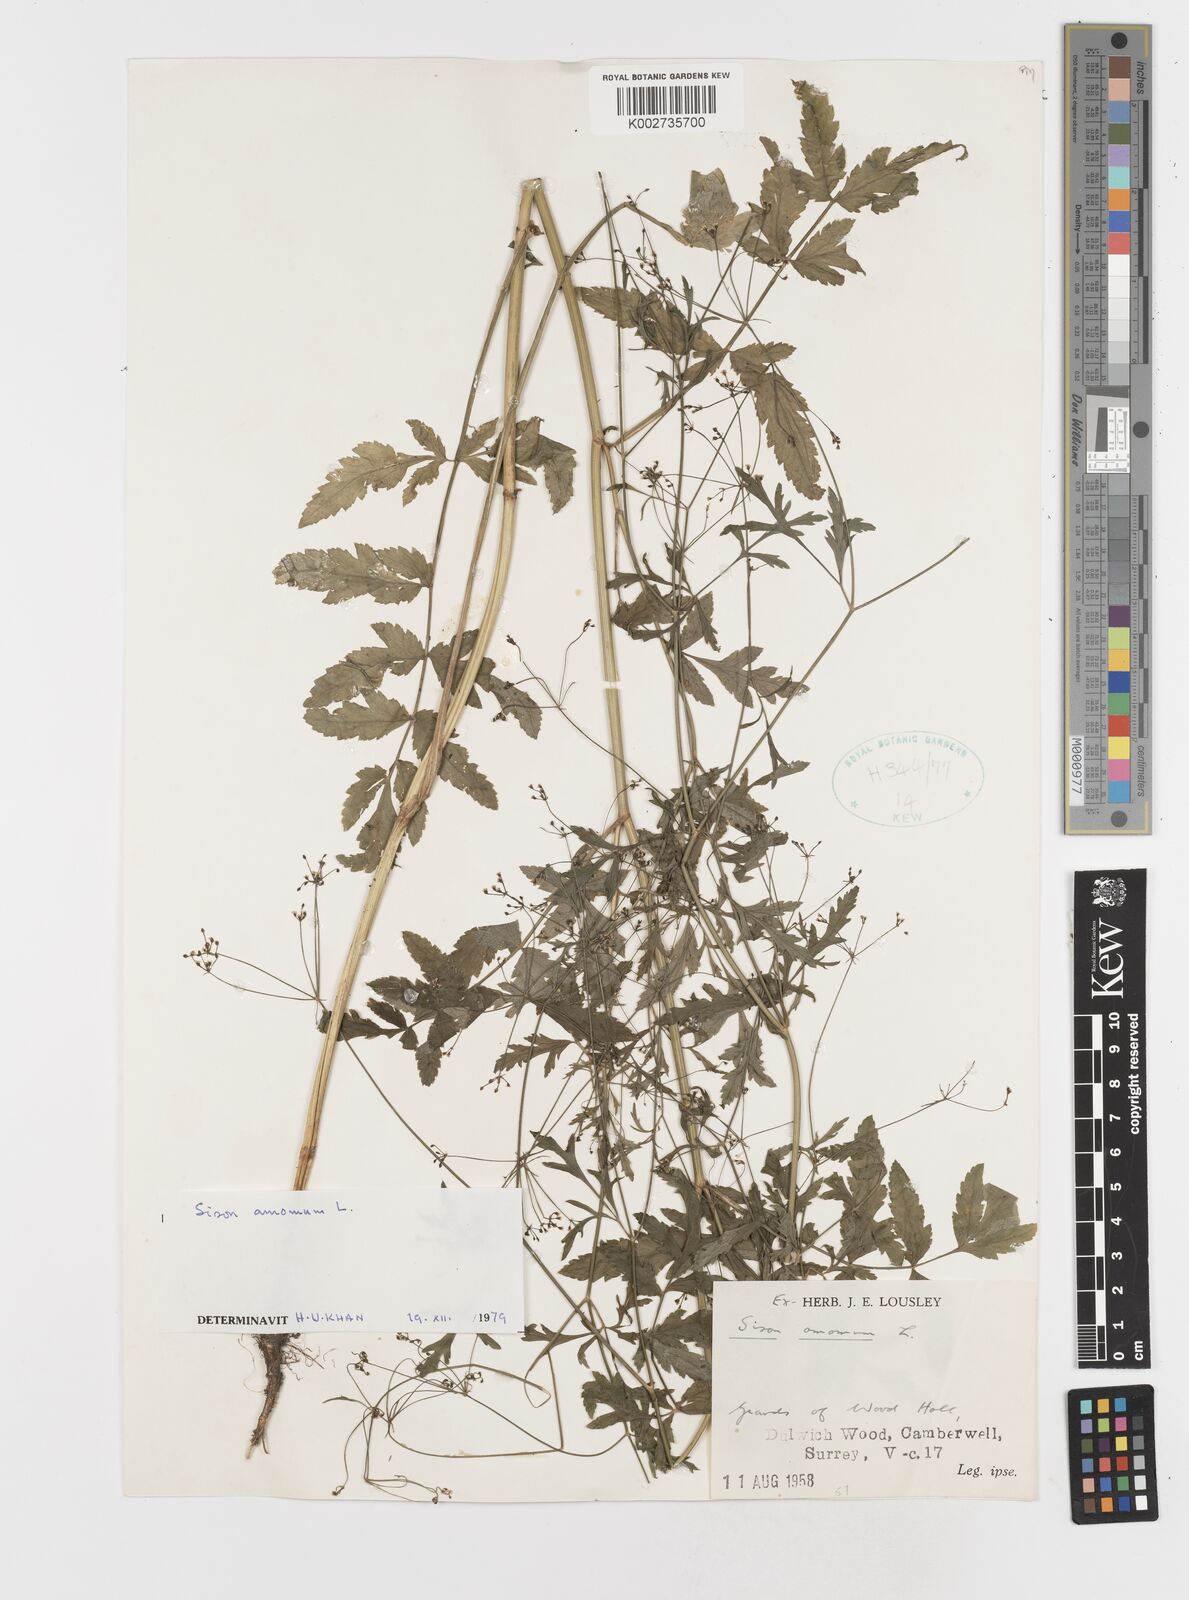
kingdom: Plantae
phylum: Tracheophyta
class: Magnoliopsida
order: Apiales
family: Apiaceae
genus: Sison
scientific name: Sison amomum
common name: Stone-parsley
